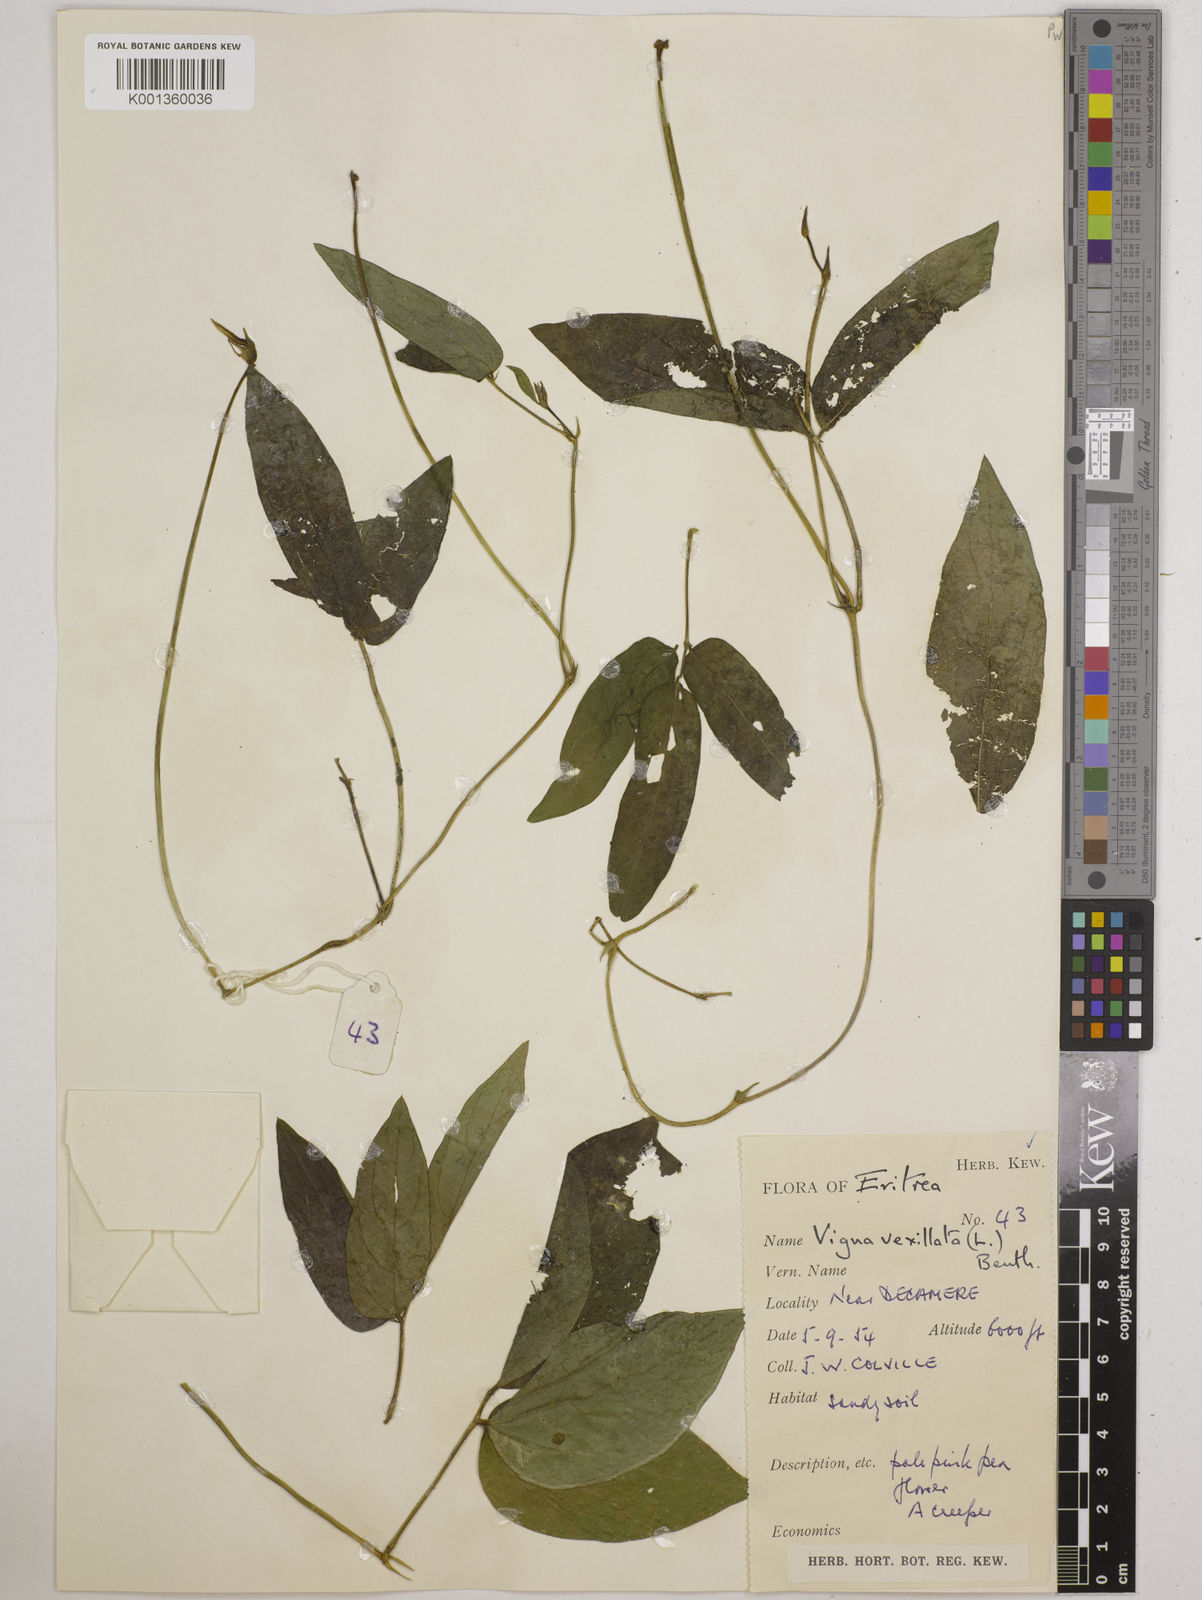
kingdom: Plantae
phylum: Tracheophyta
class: Magnoliopsida
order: Fabales
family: Fabaceae
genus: Vigna
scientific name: Vigna vexillata
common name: Zombi pea
